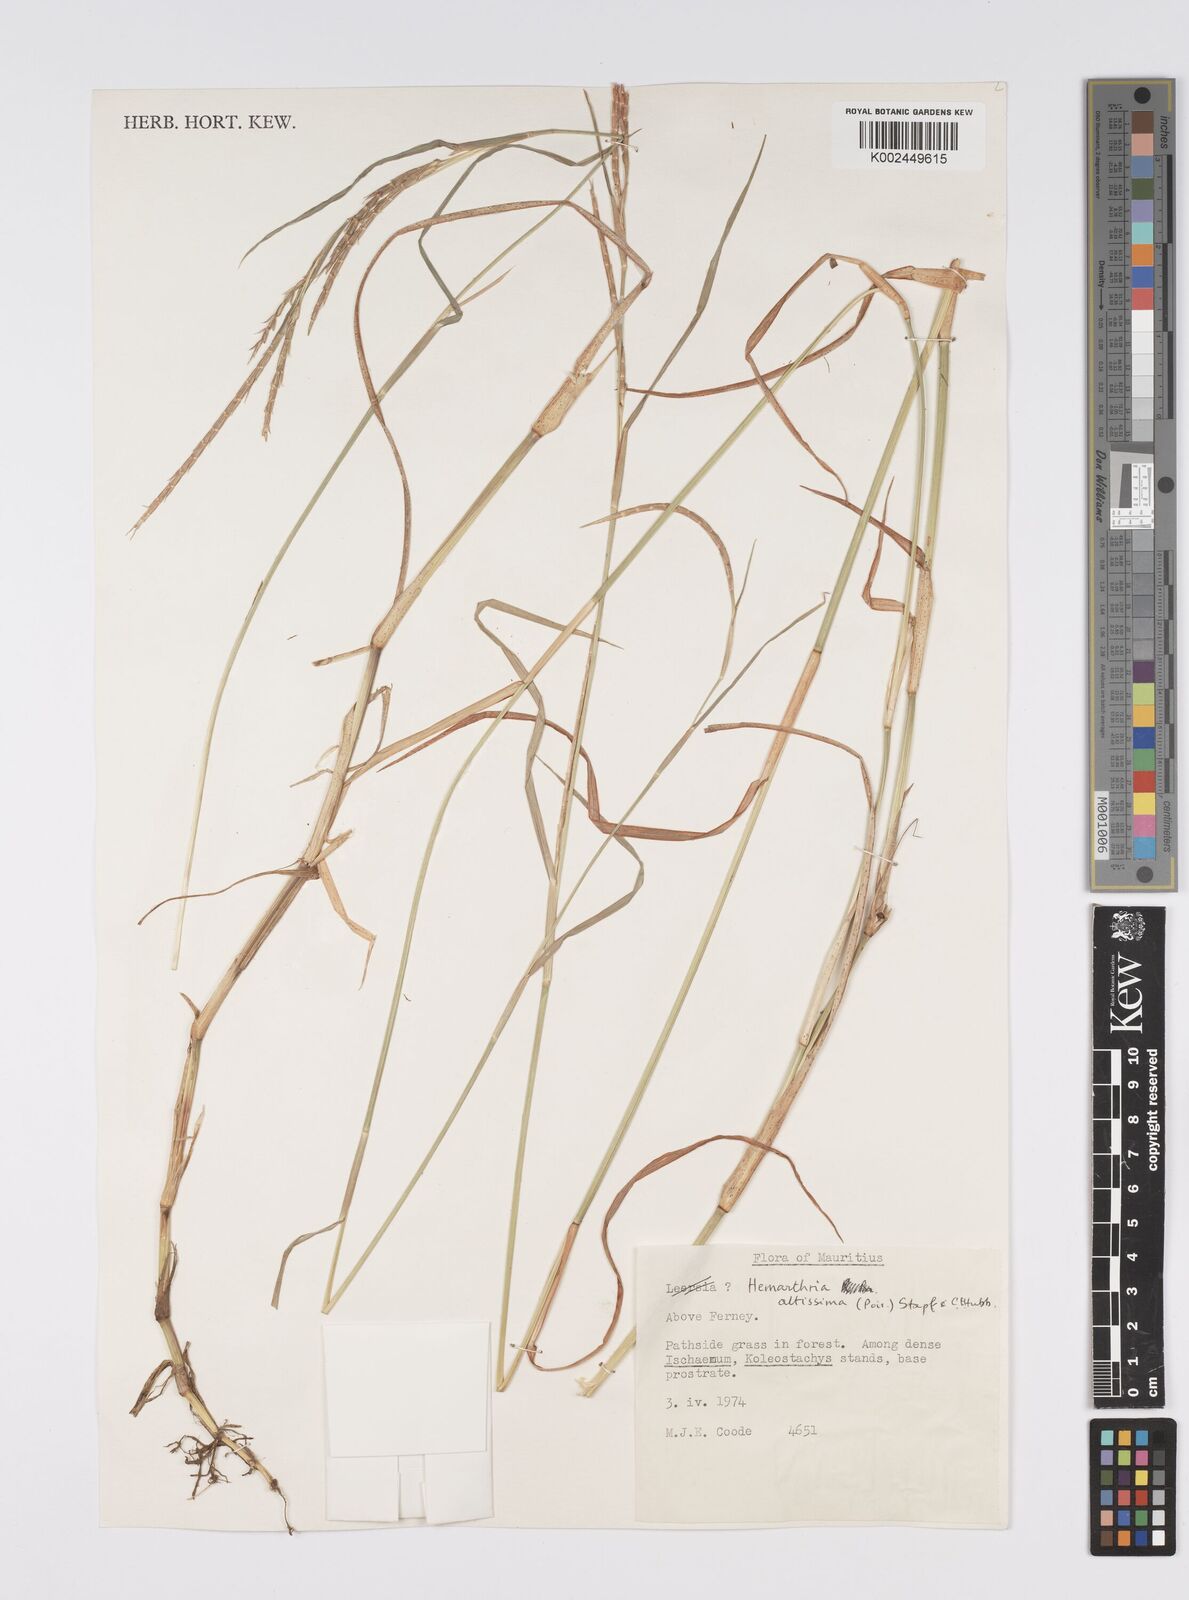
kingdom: Plantae
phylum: Tracheophyta
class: Liliopsida
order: Poales
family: Poaceae
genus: Hemarthria
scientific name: Hemarthria altissima
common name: African jointgrass
